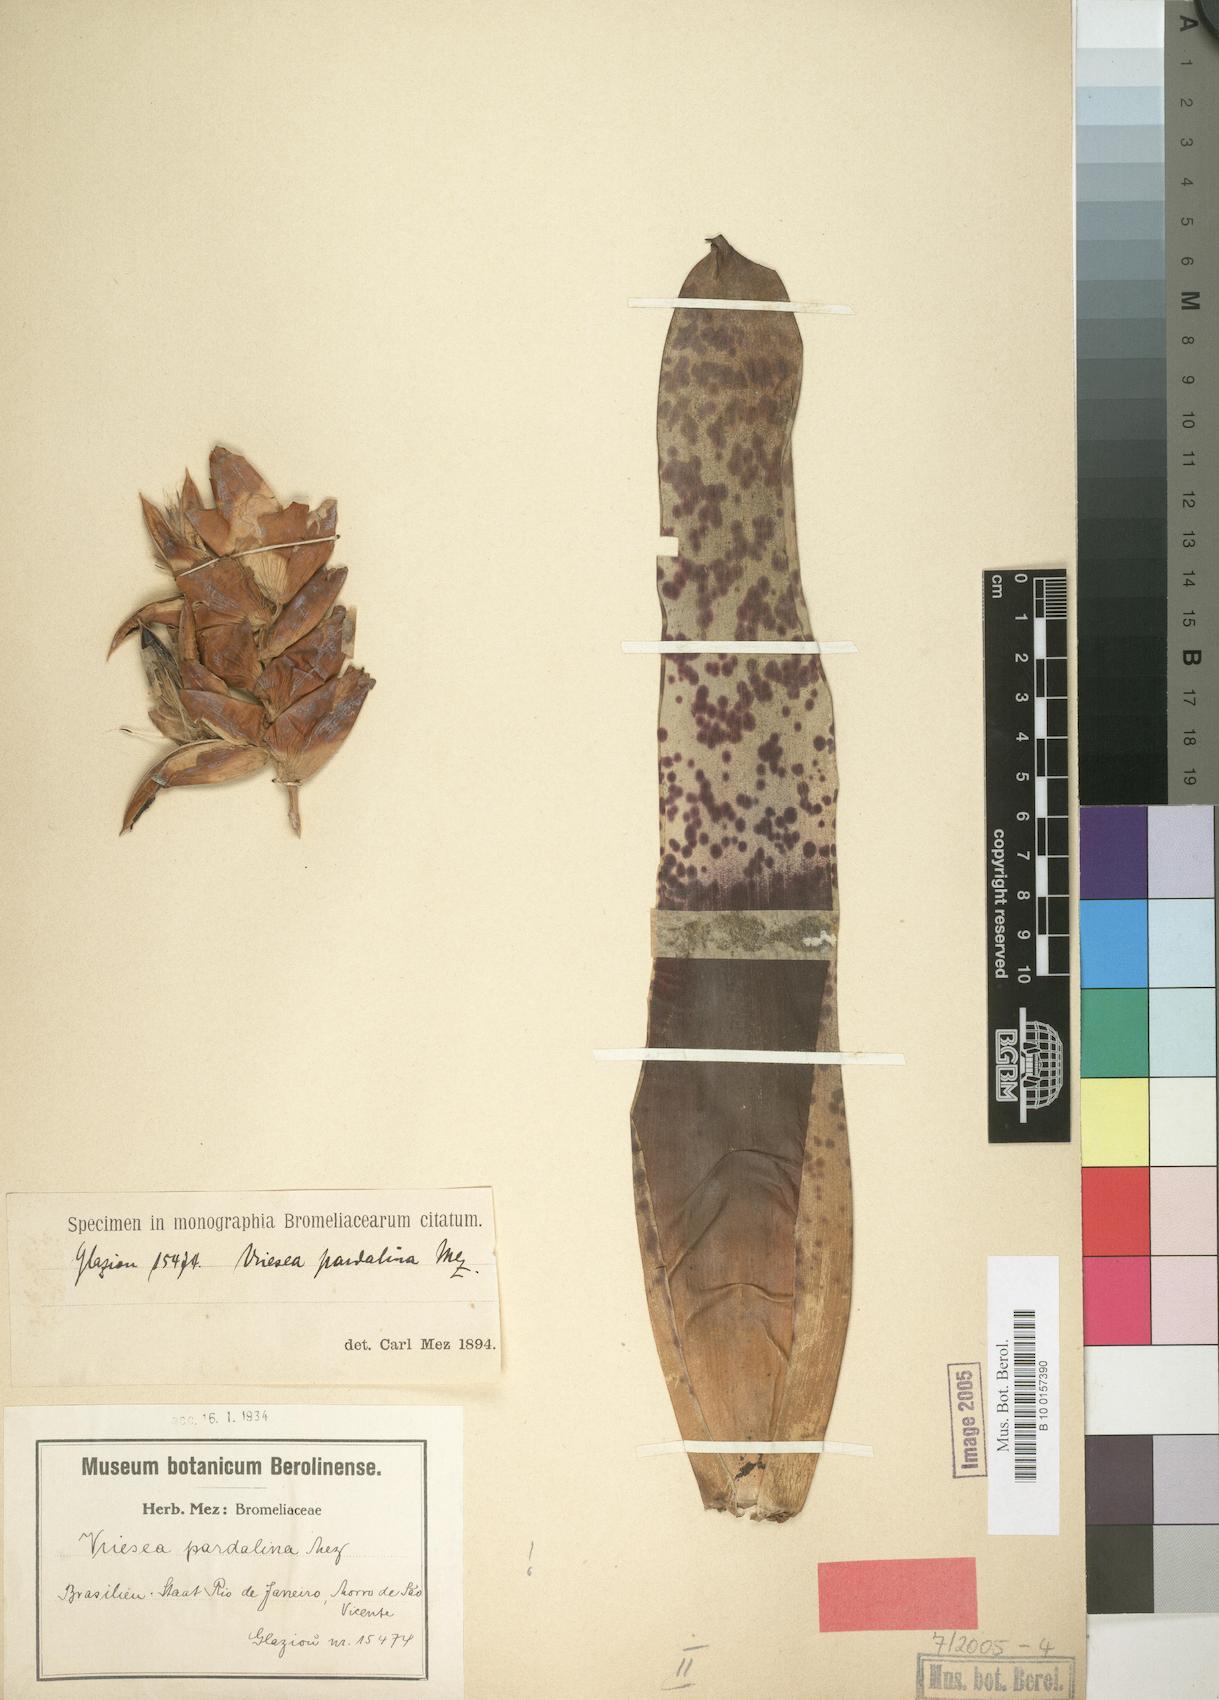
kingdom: Plantae
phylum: Tracheophyta
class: Liliopsida
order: Poales
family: Bromeliaceae
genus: Vriesea
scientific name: Vriesea pardalina
